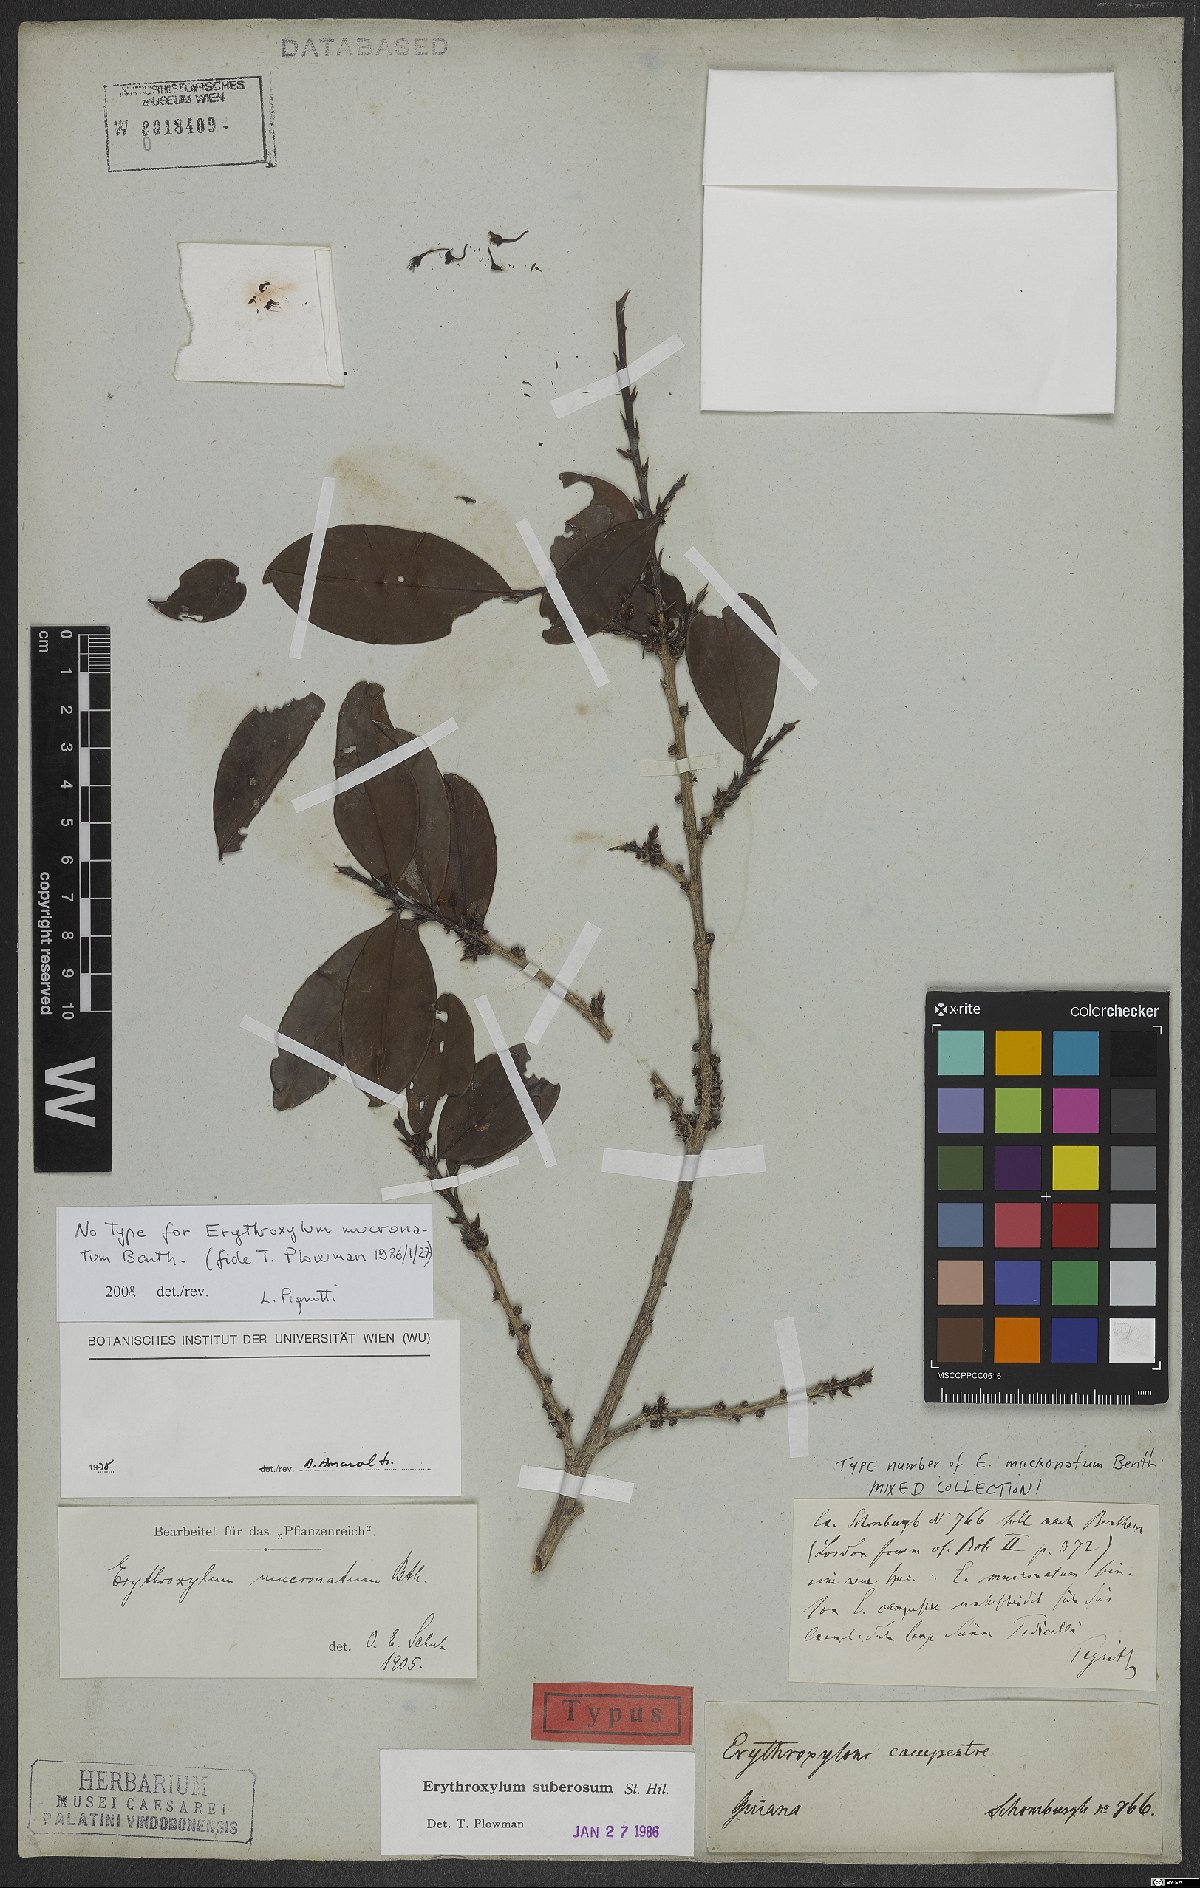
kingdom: Plantae
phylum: Tracheophyta
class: Magnoliopsida
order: Malpighiales
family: Erythroxylaceae
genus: Erythroxylum
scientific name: Erythroxylum suberosum
